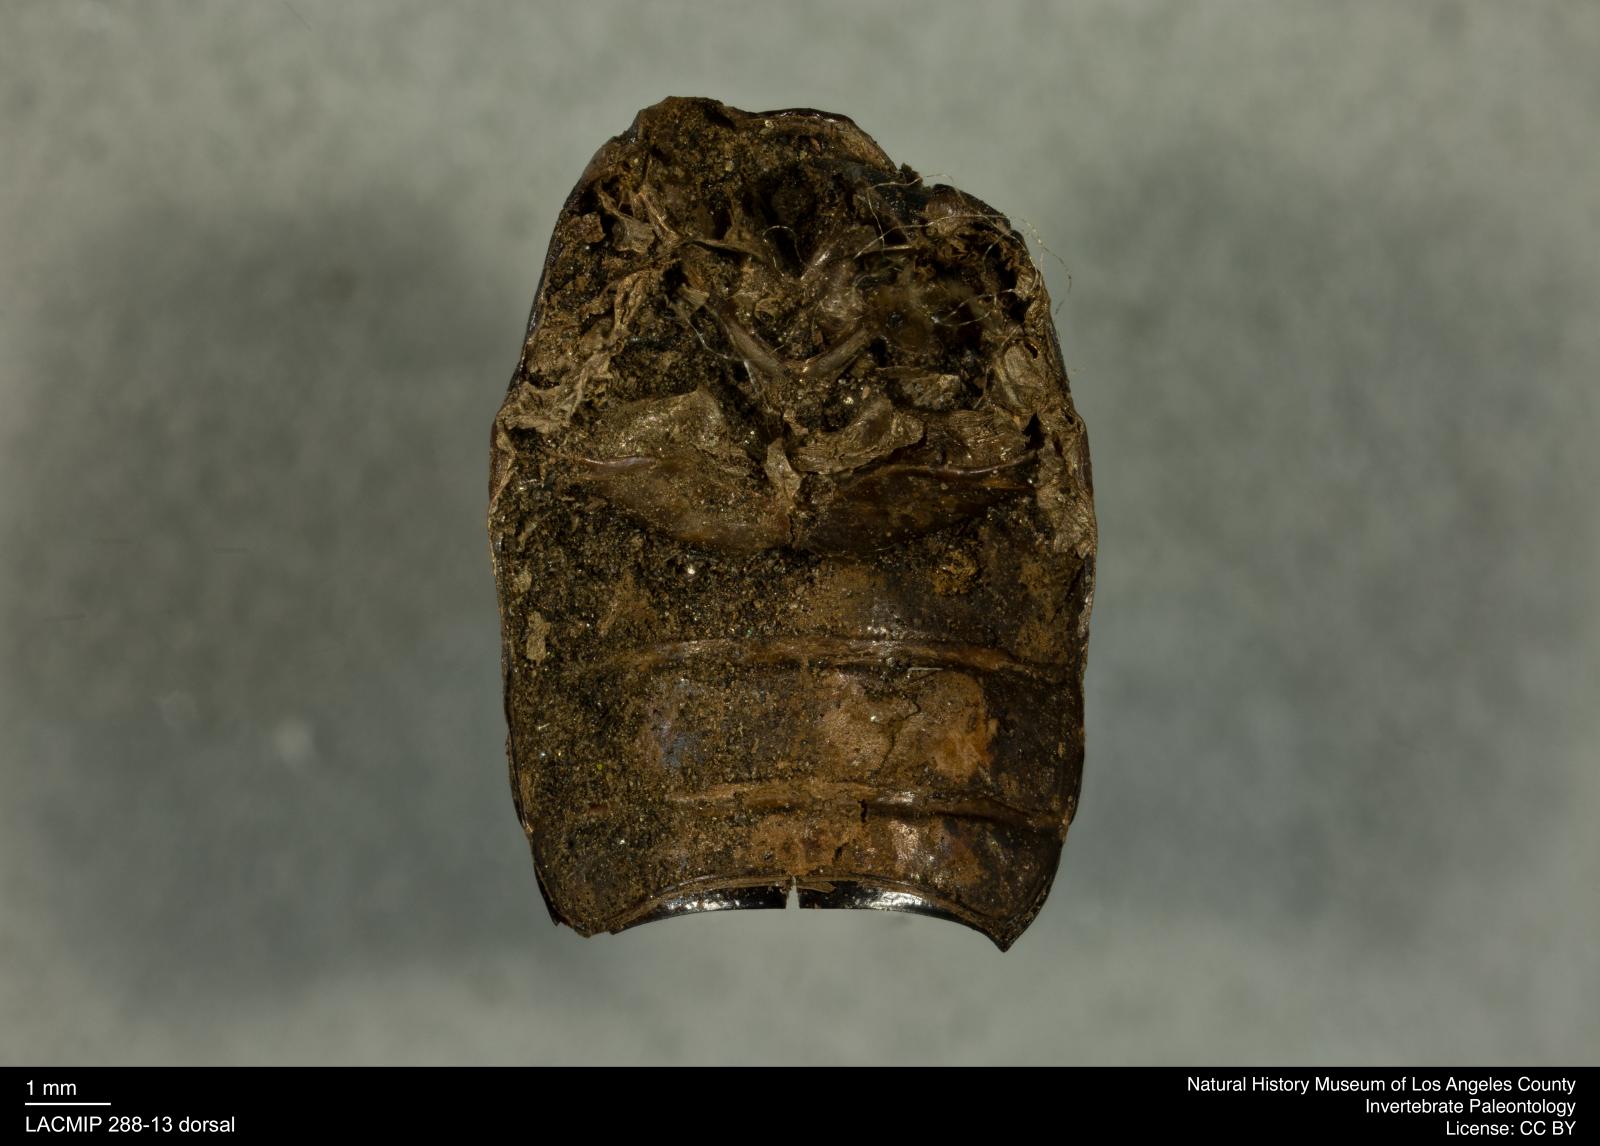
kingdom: Animalia
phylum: Arthropoda
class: Insecta
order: Coleoptera
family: Tenebrionidae
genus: Coniontis
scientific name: Coniontis abdominalis
